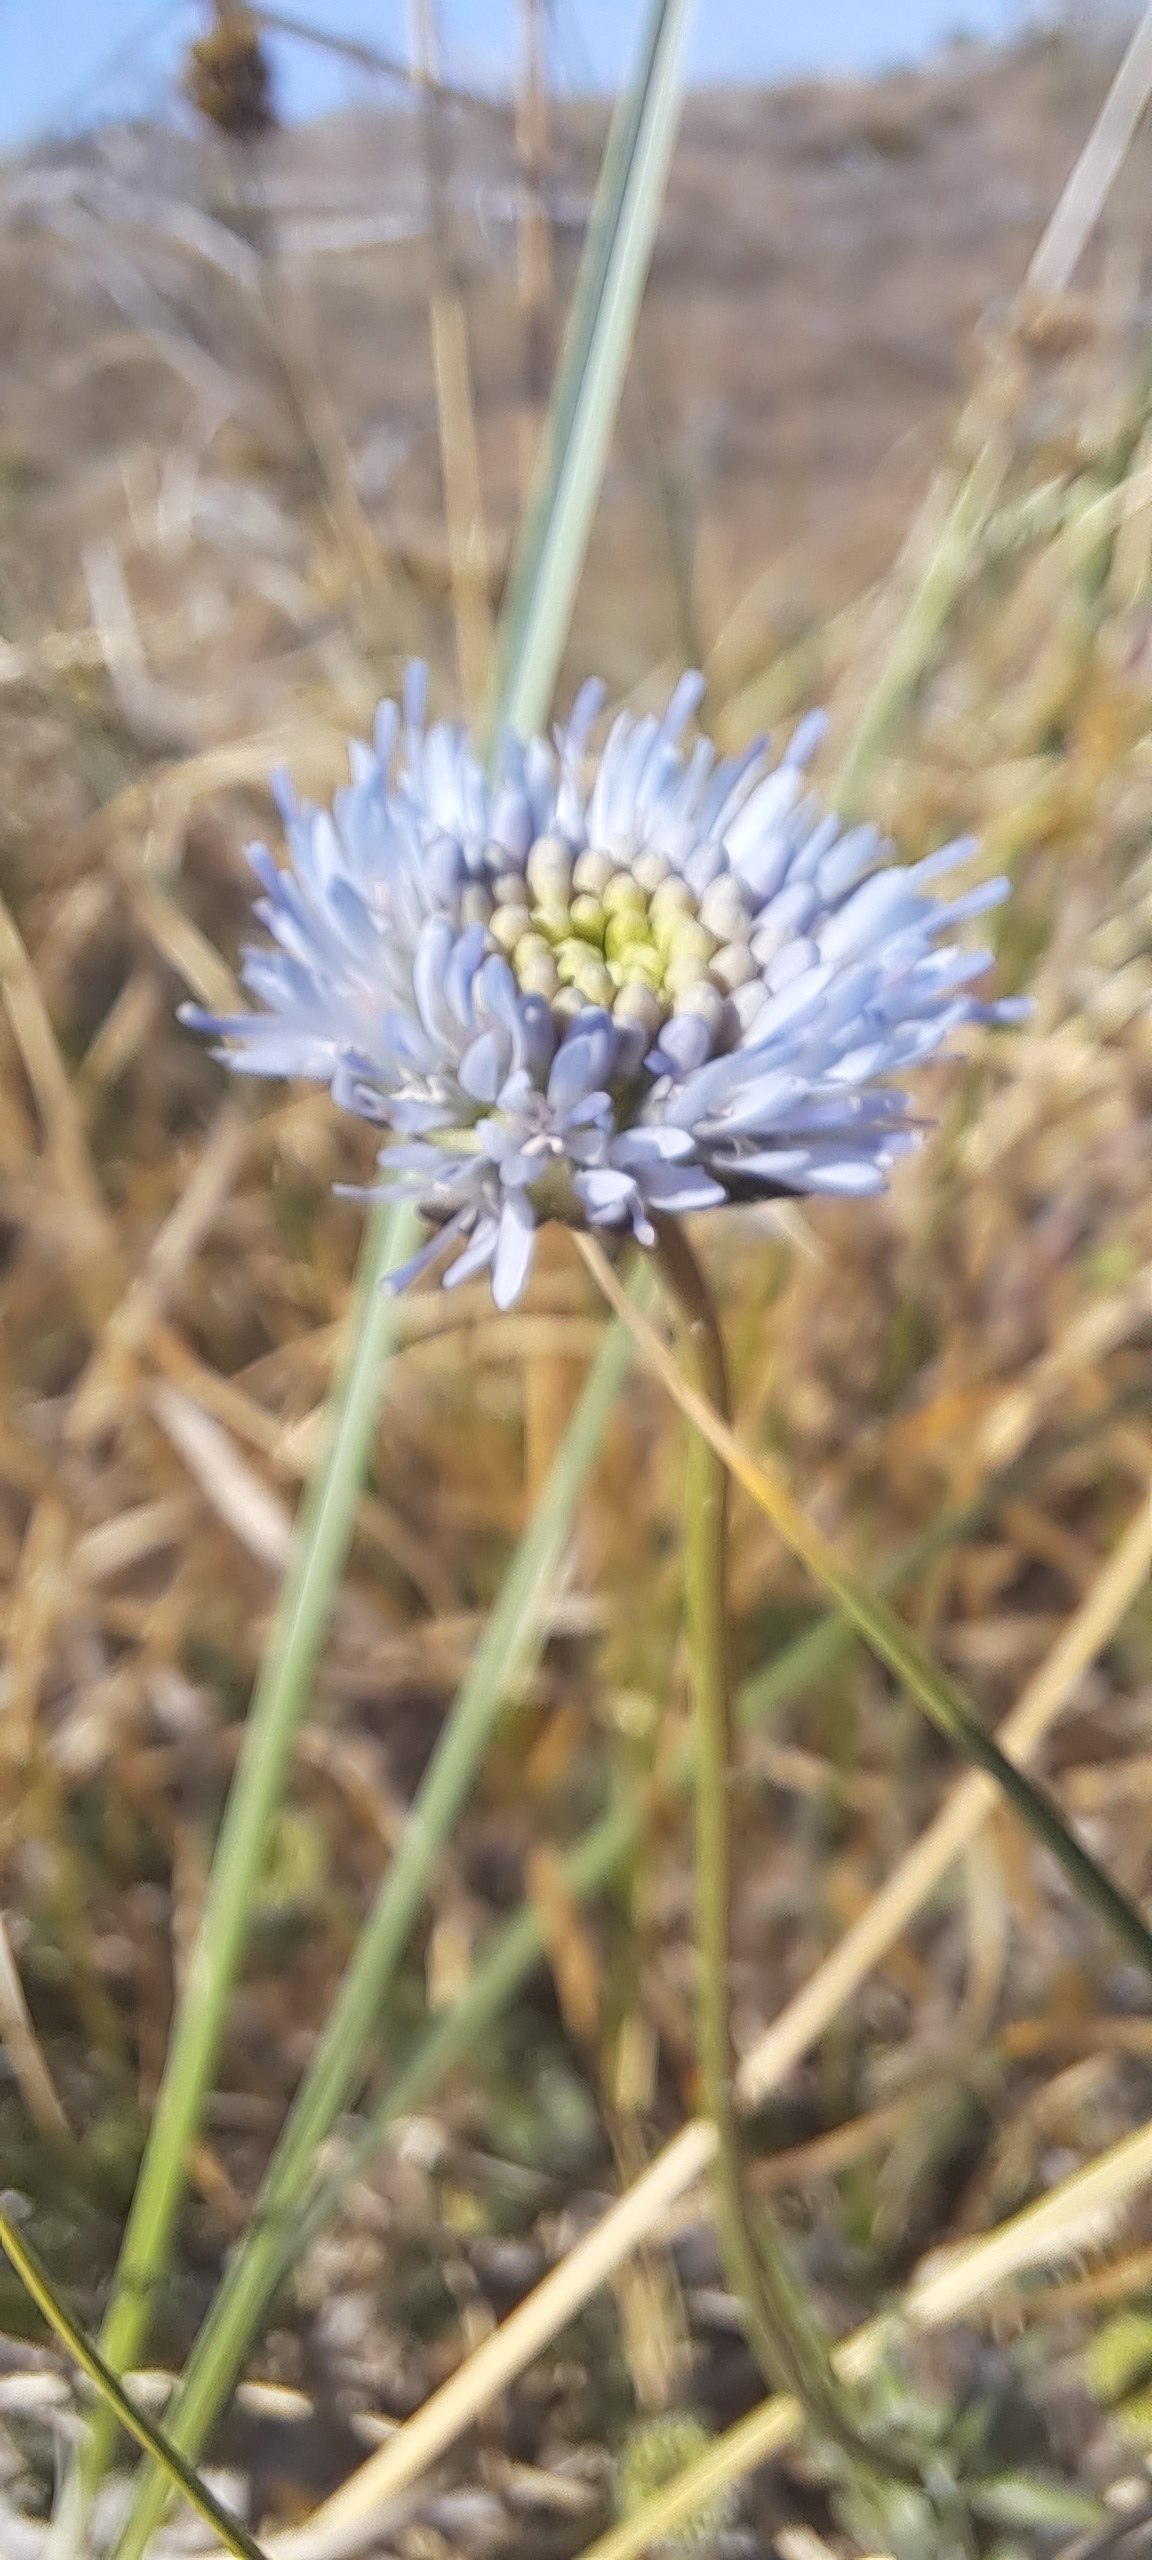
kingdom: Plantae
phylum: Tracheophyta
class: Magnoliopsida
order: Asterales
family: Campanulaceae
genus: Jasione
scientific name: Jasione montana
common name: Blåmunke
